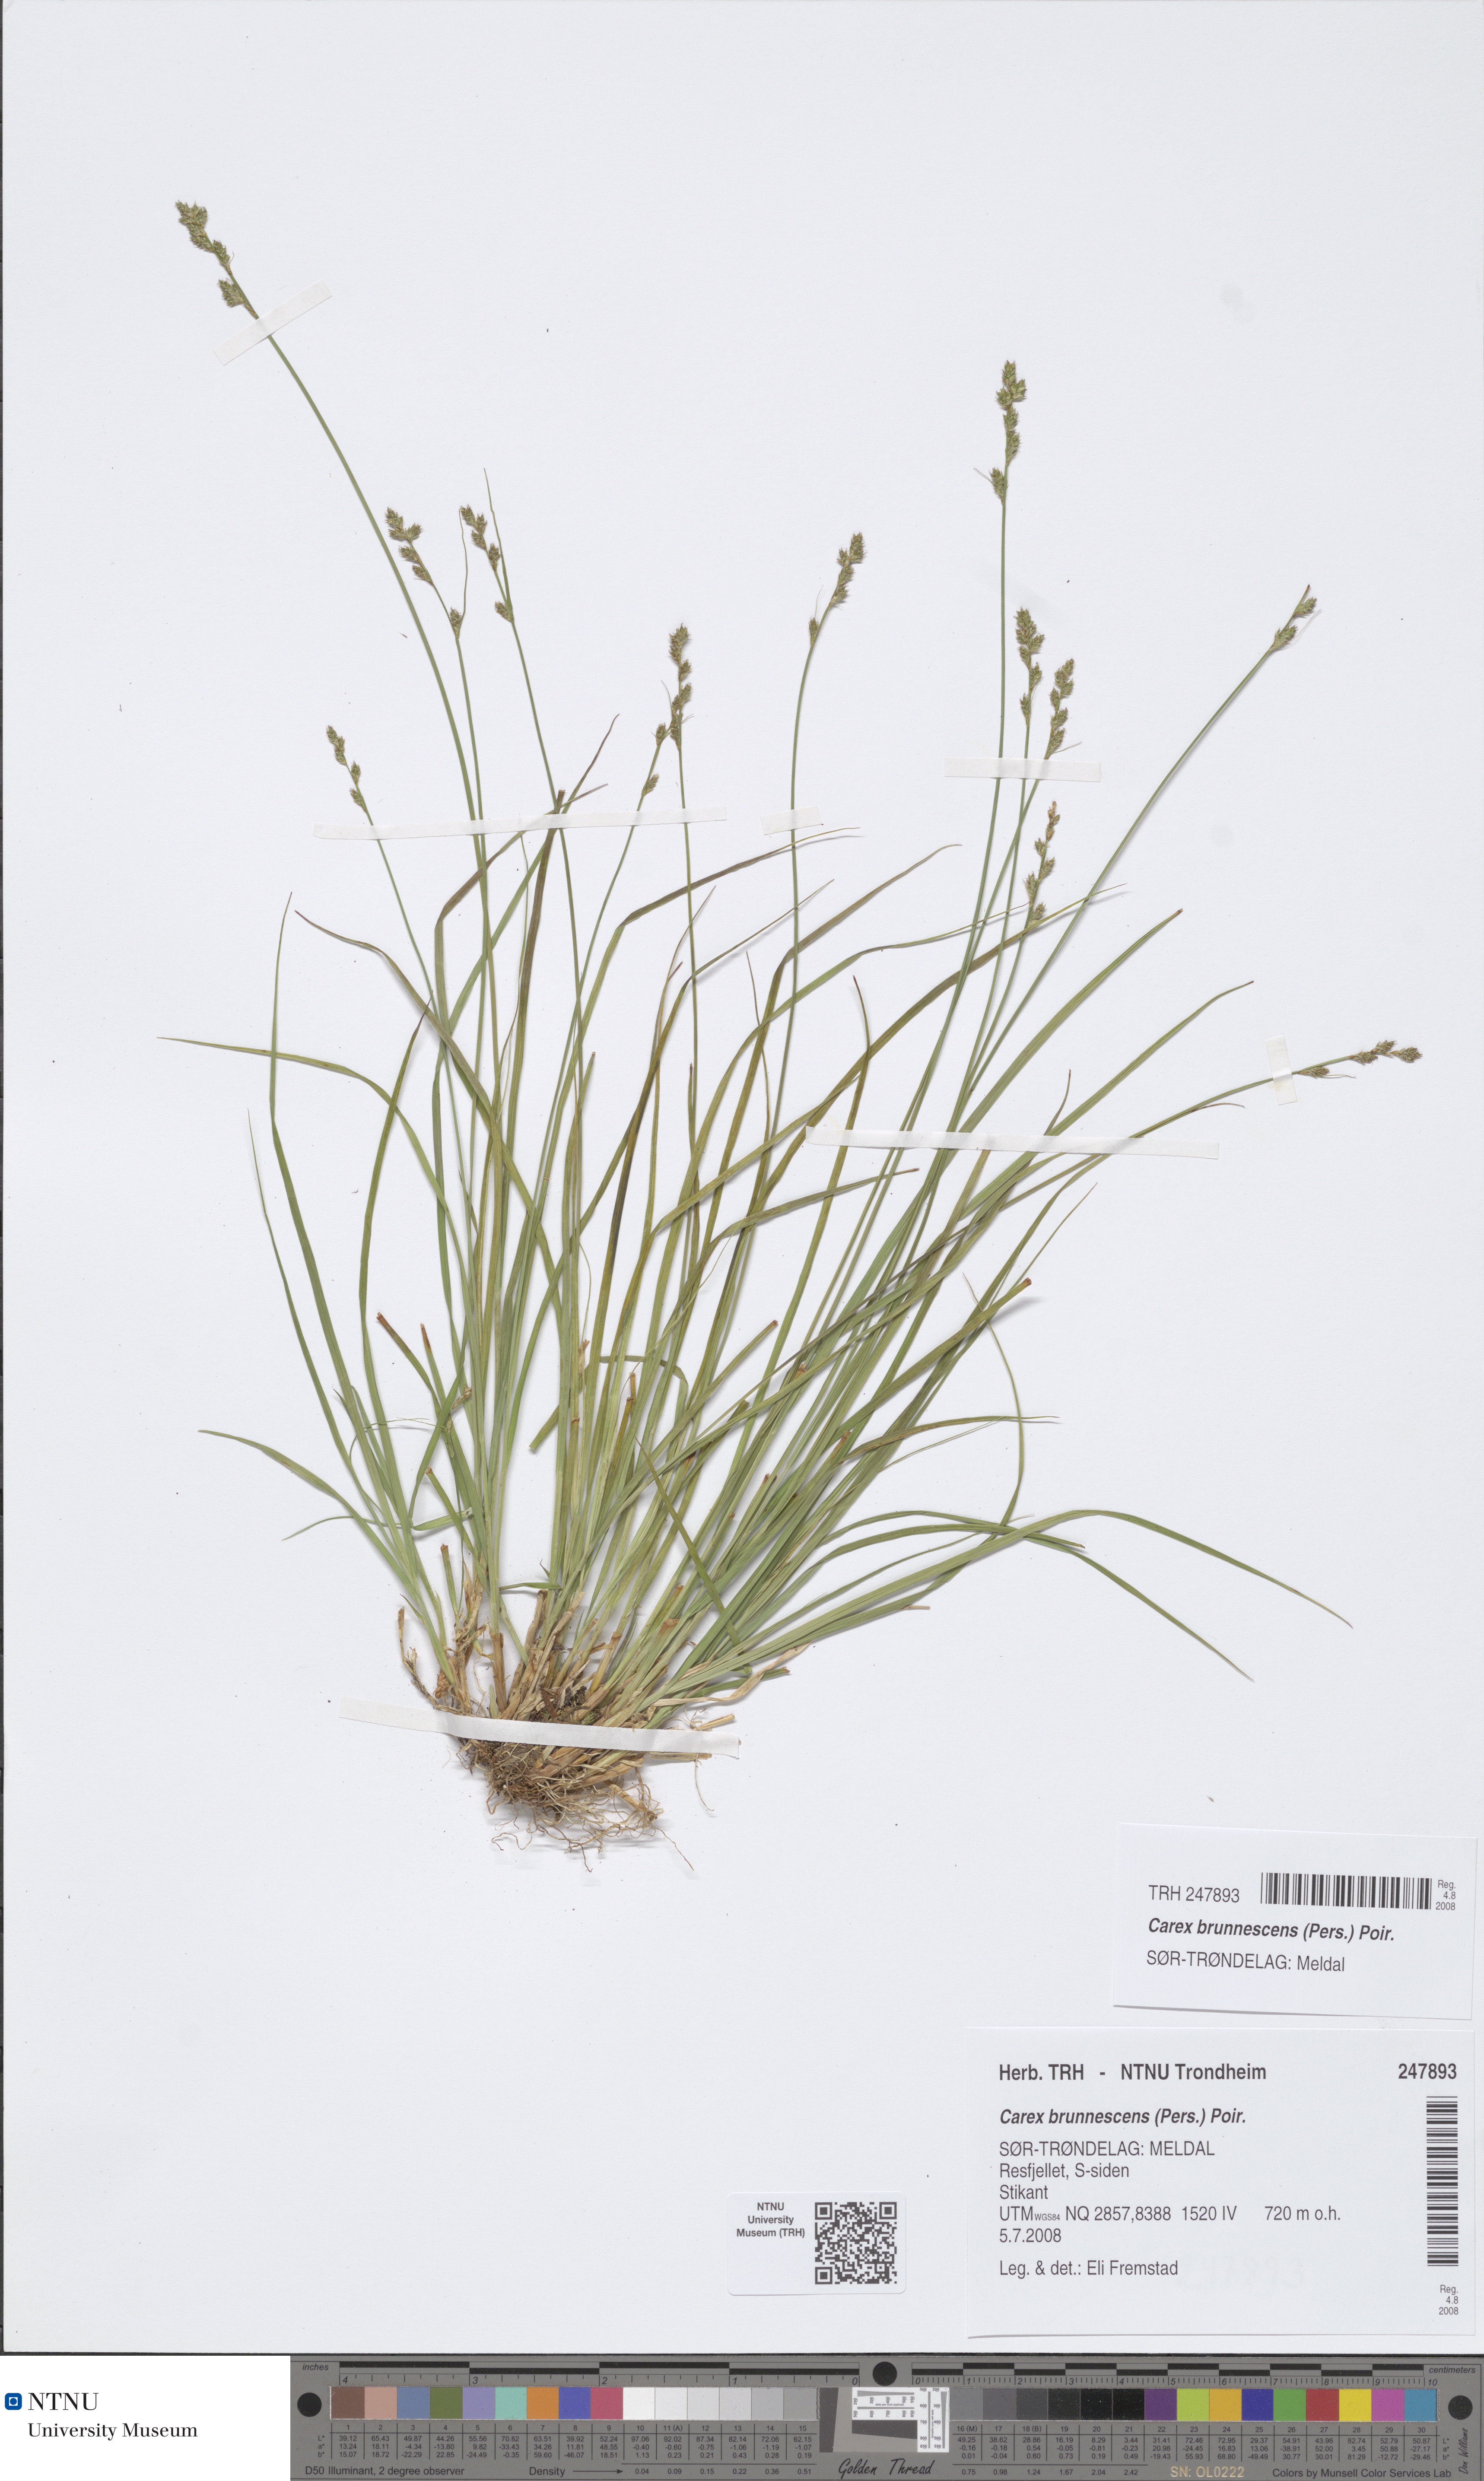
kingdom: Plantae
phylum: Tracheophyta
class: Liliopsida
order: Poales
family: Cyperaceae
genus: Carex
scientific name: Carex brunnescens
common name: Brown sedge
